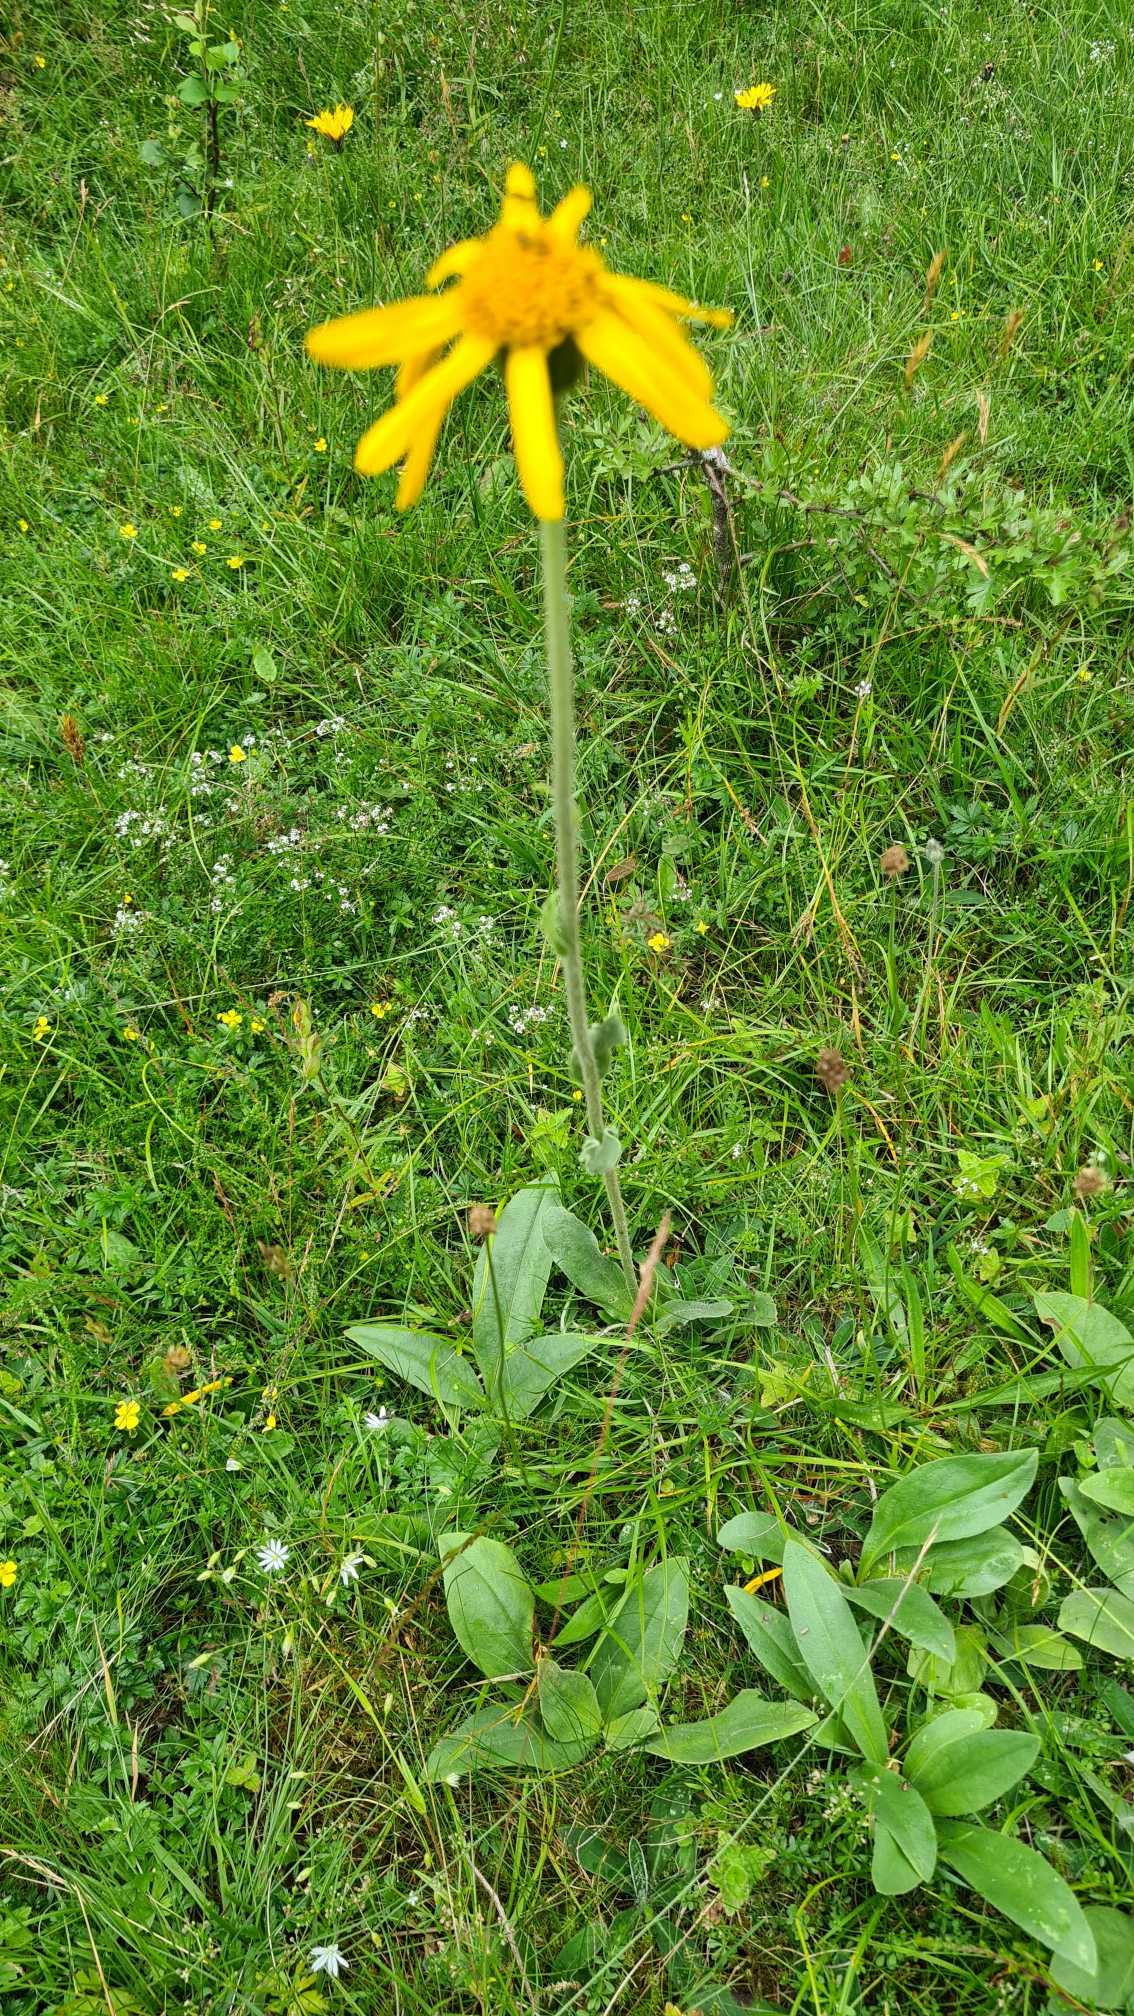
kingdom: Plantae
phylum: Tracheophyta
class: Magnoliopsida
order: Asterales
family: Asteraceae
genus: Arnica
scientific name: Arnica montana
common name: Guldblomme
